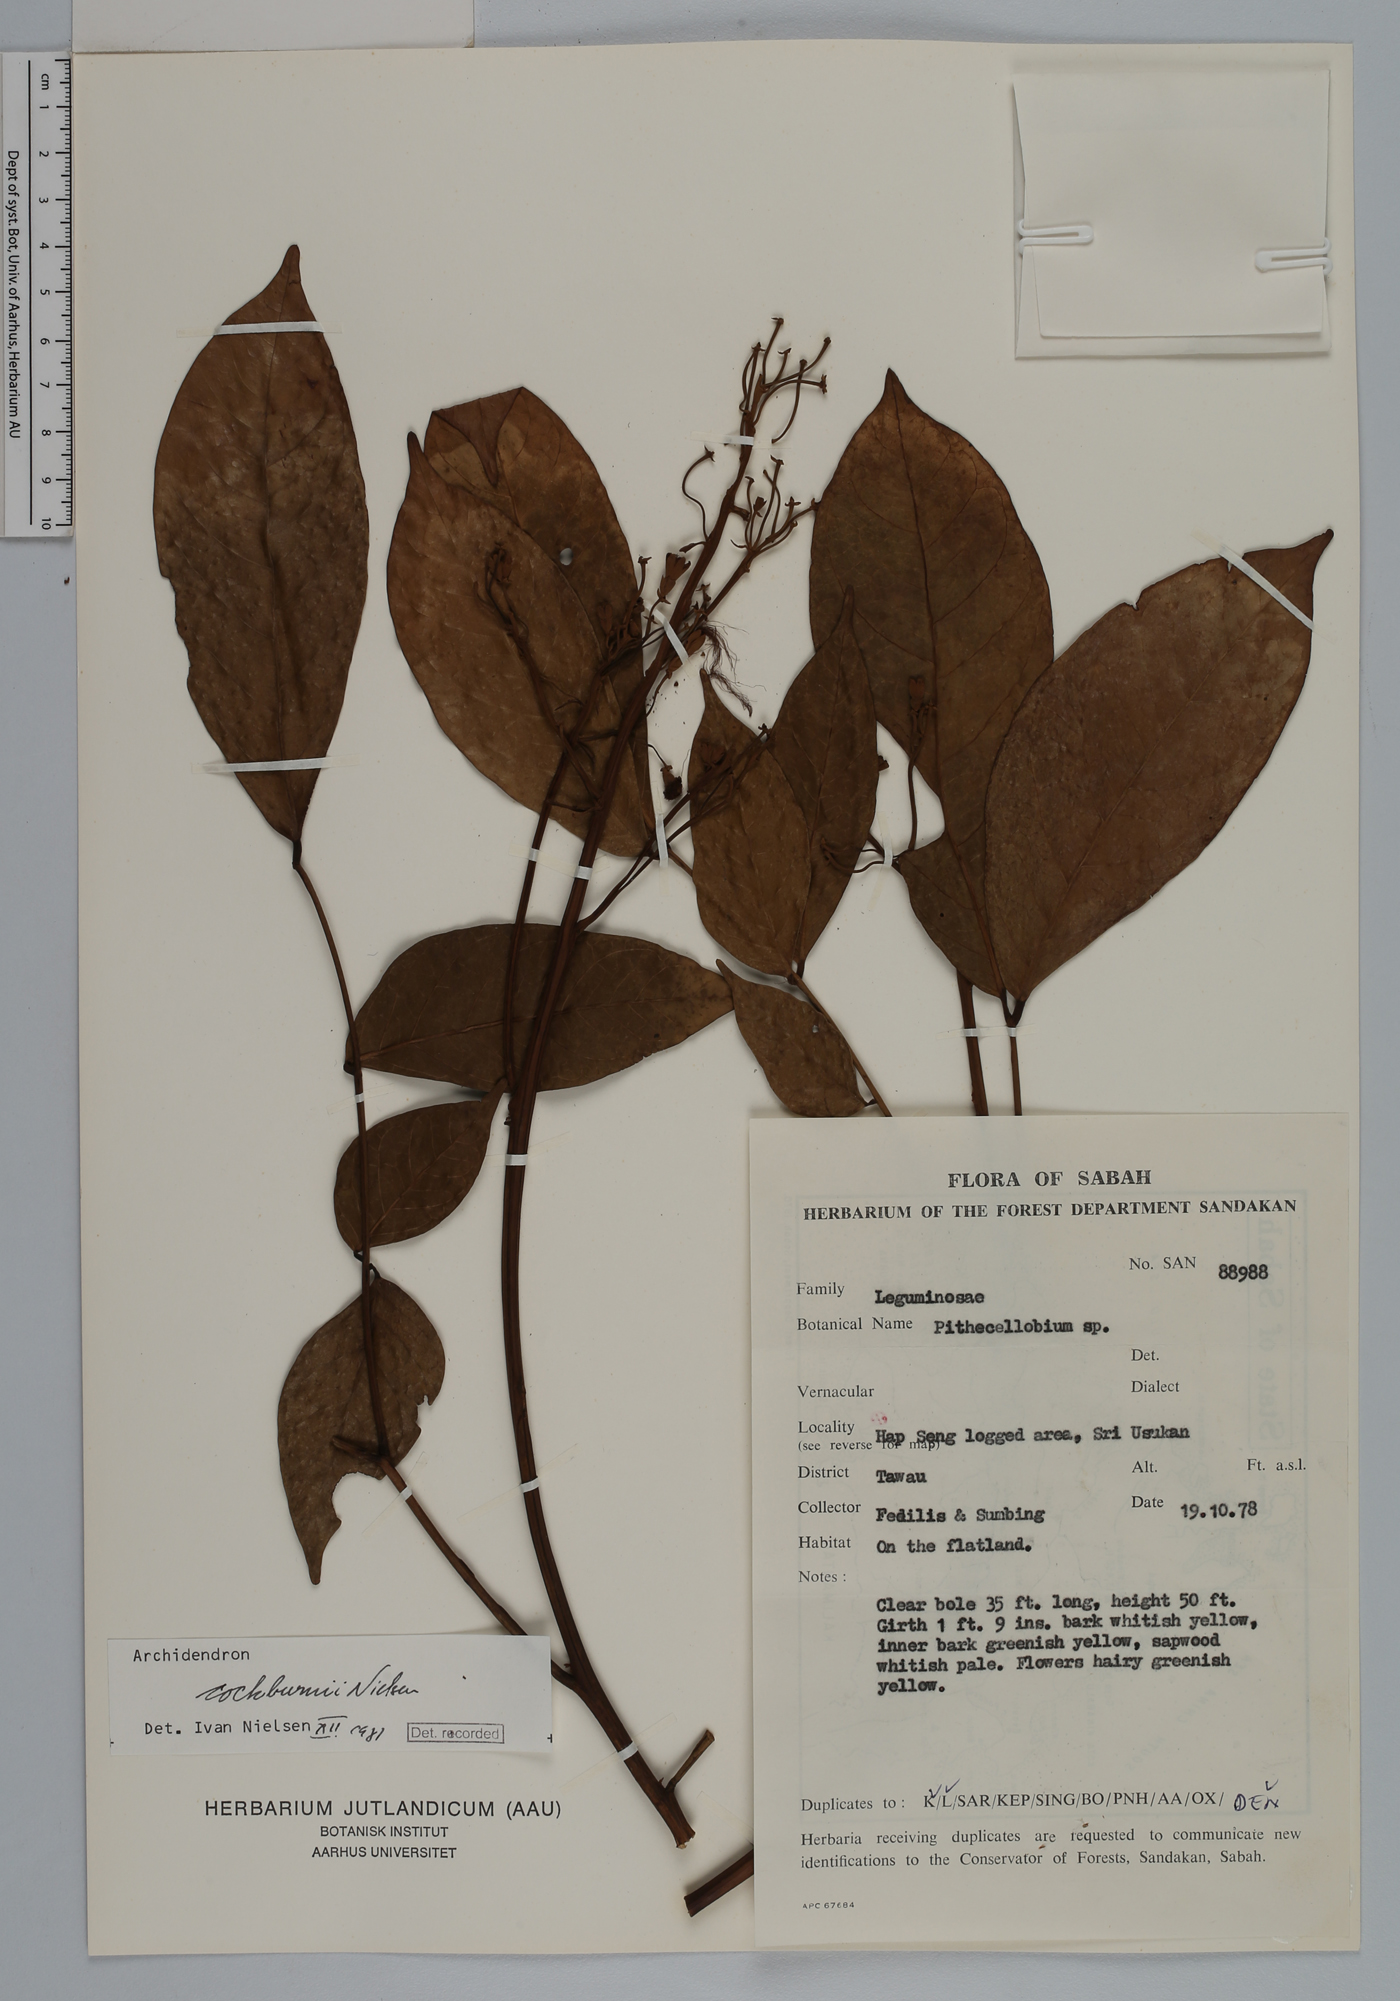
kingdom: Plantae
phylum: Tracheophyta
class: Magnoliopsida
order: Fabales
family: Fabaceae
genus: Archidendron
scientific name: Archidendron cockburnii
